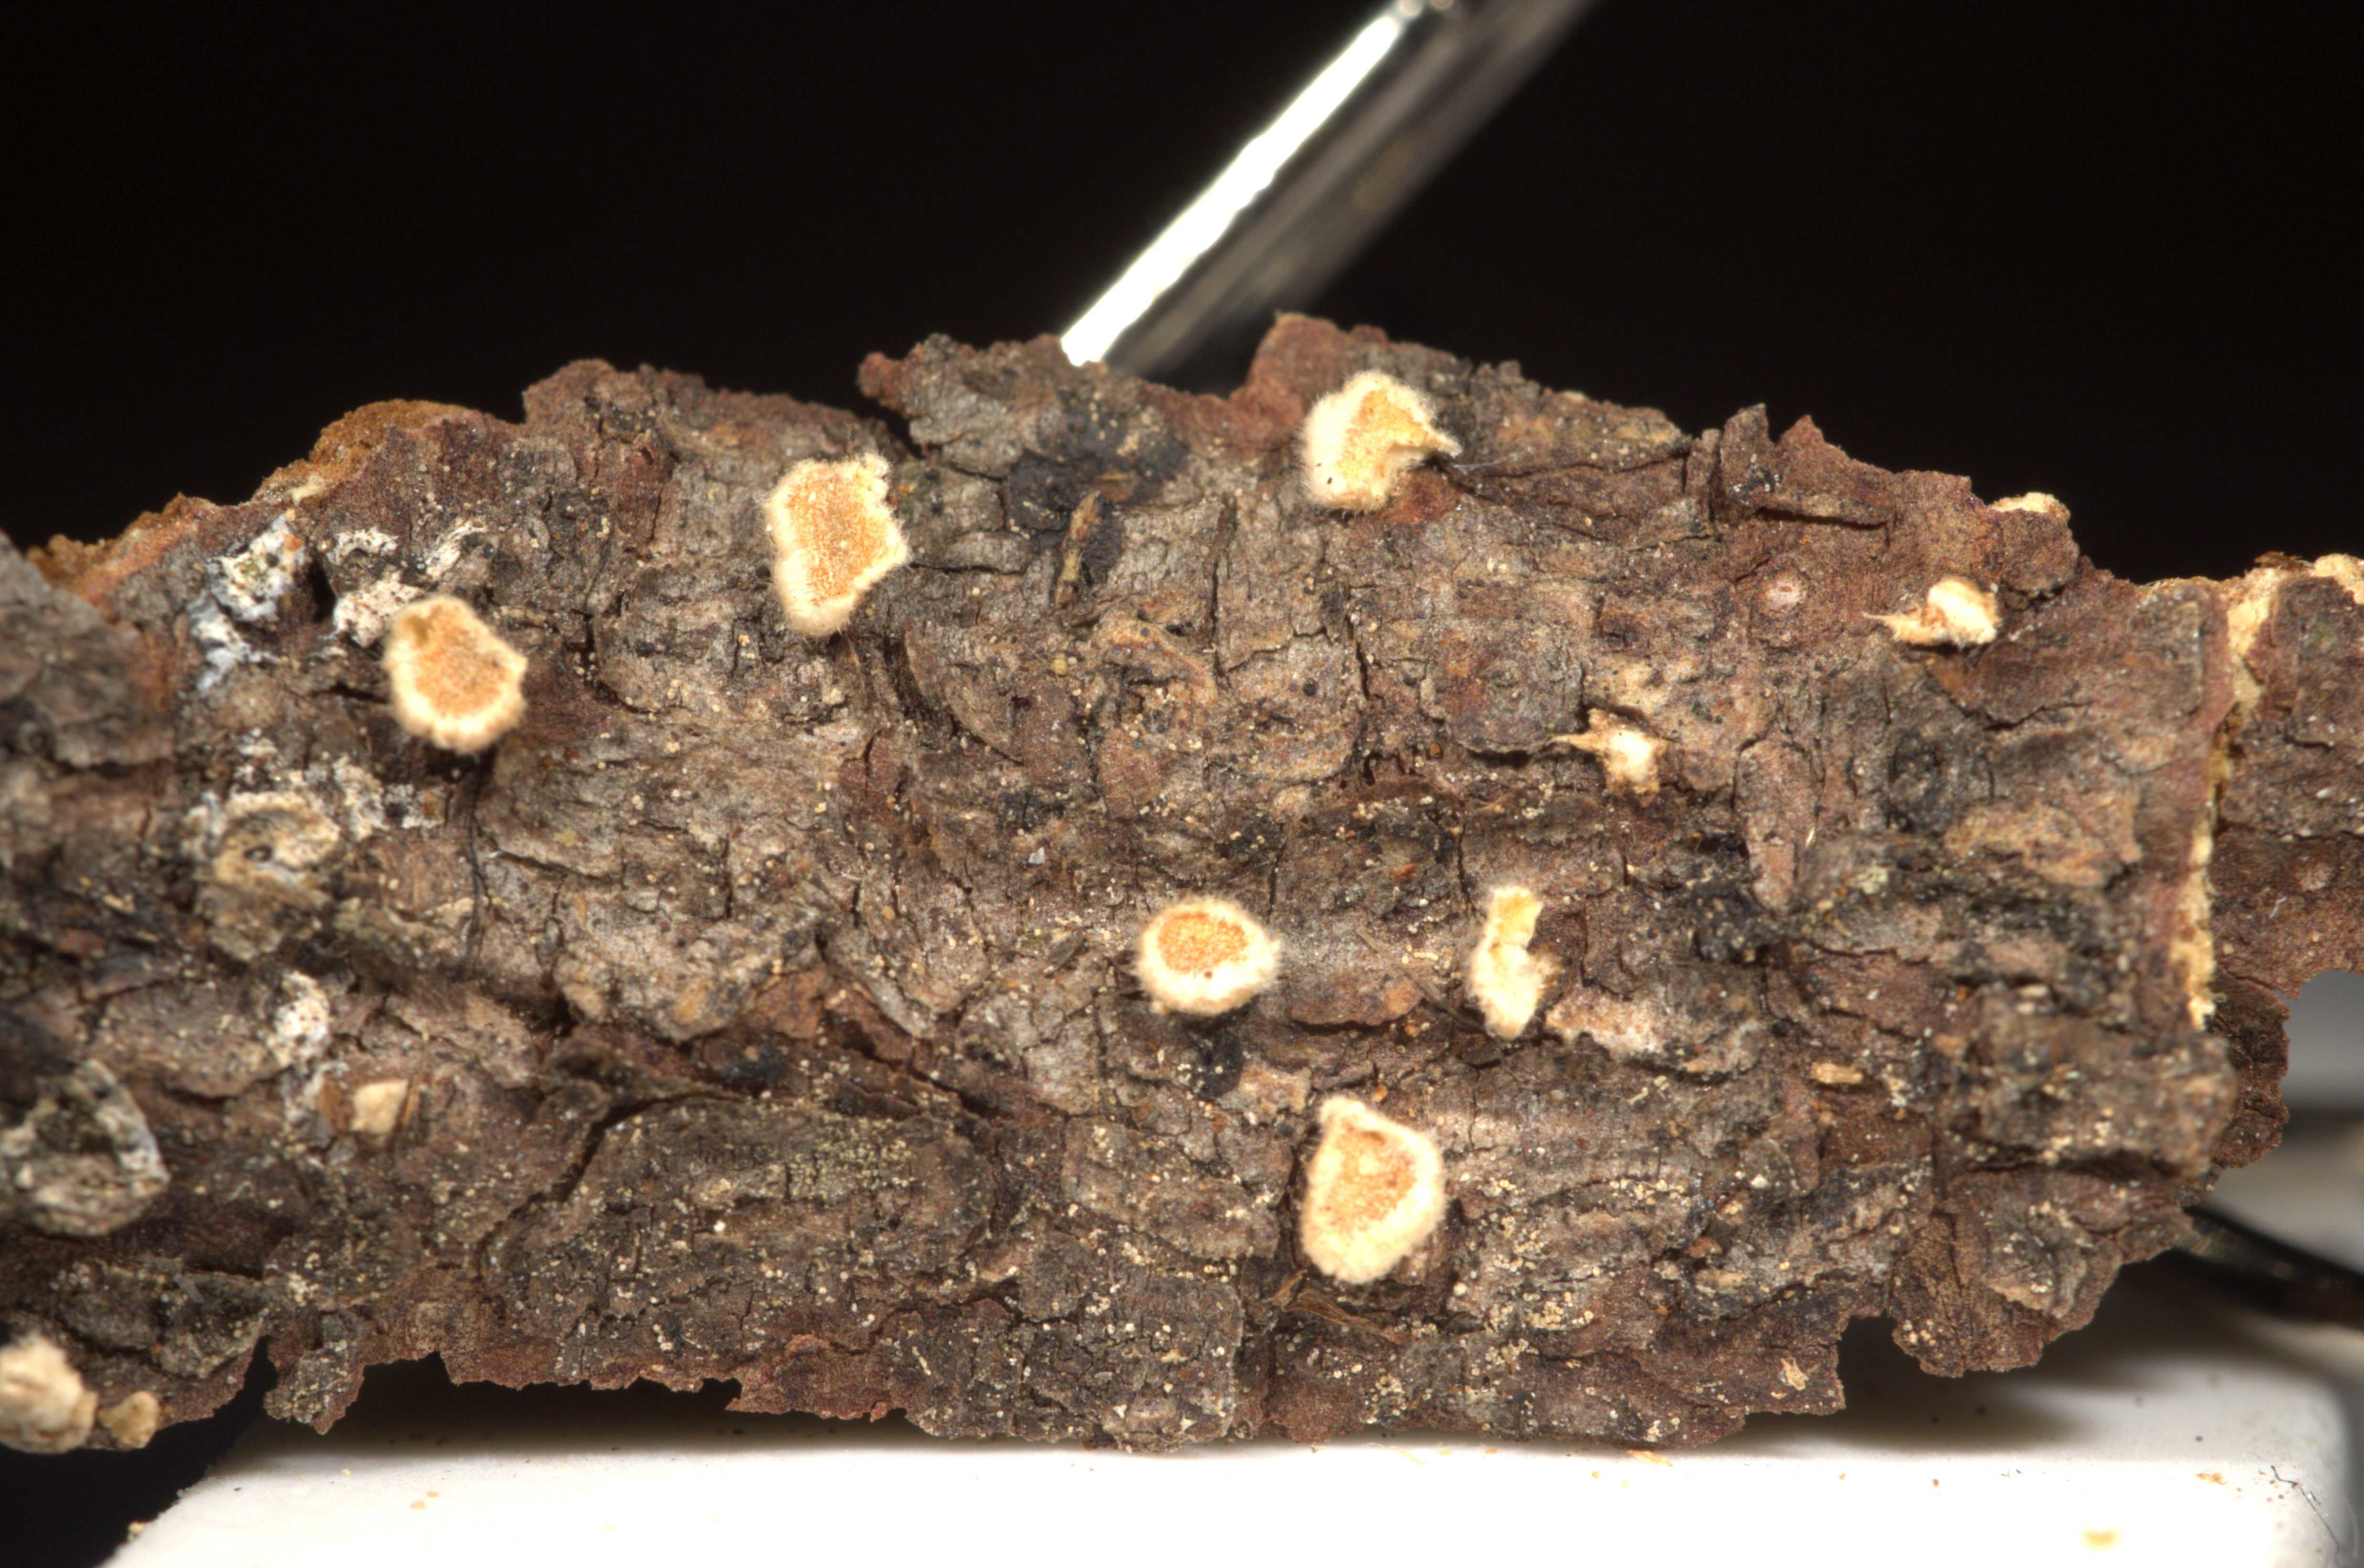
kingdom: Fungi
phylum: Basidiomycota
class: Agaricomycetes
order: Russulales
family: Stereaceae
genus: Aleurodiscus
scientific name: Aleurodiscus amorphus
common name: Orange discus
